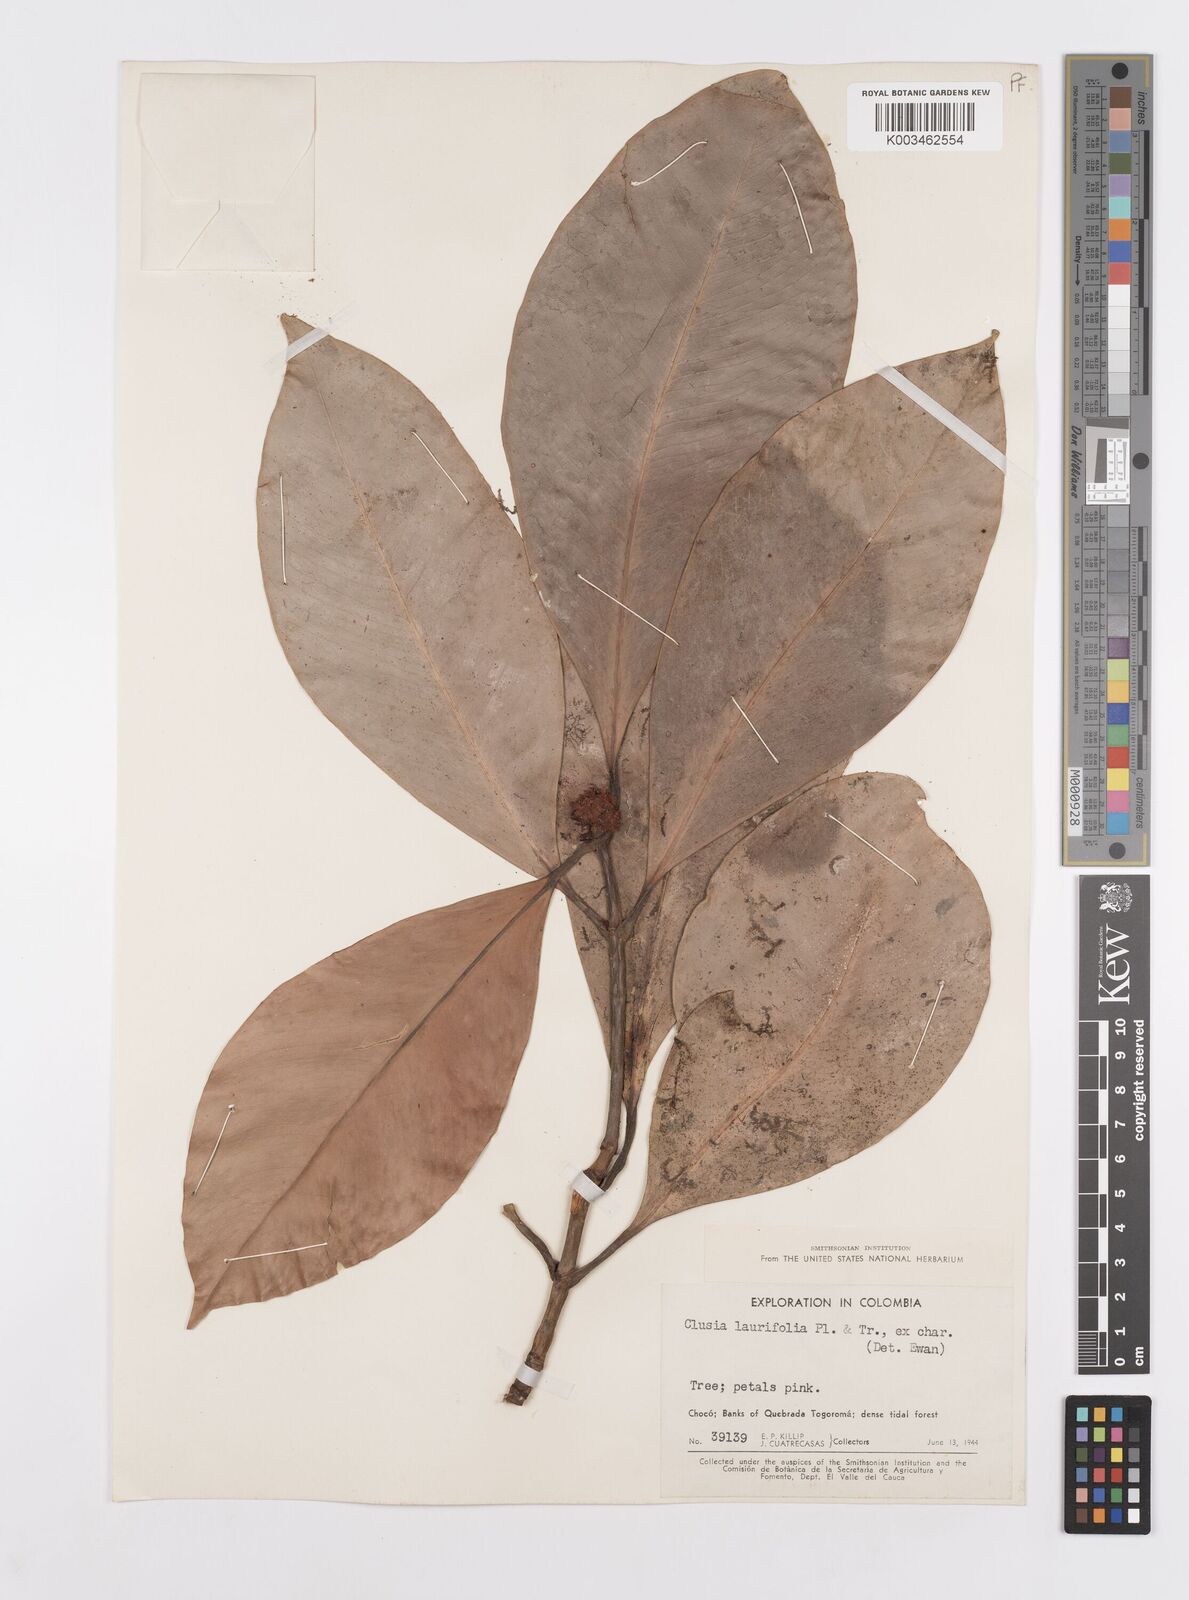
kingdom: Plantae
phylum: Tracheophyta
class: Magnoliopsida
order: Malpighiales
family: Clusiaceae
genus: Clusia
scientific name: Clusia laurifolia
